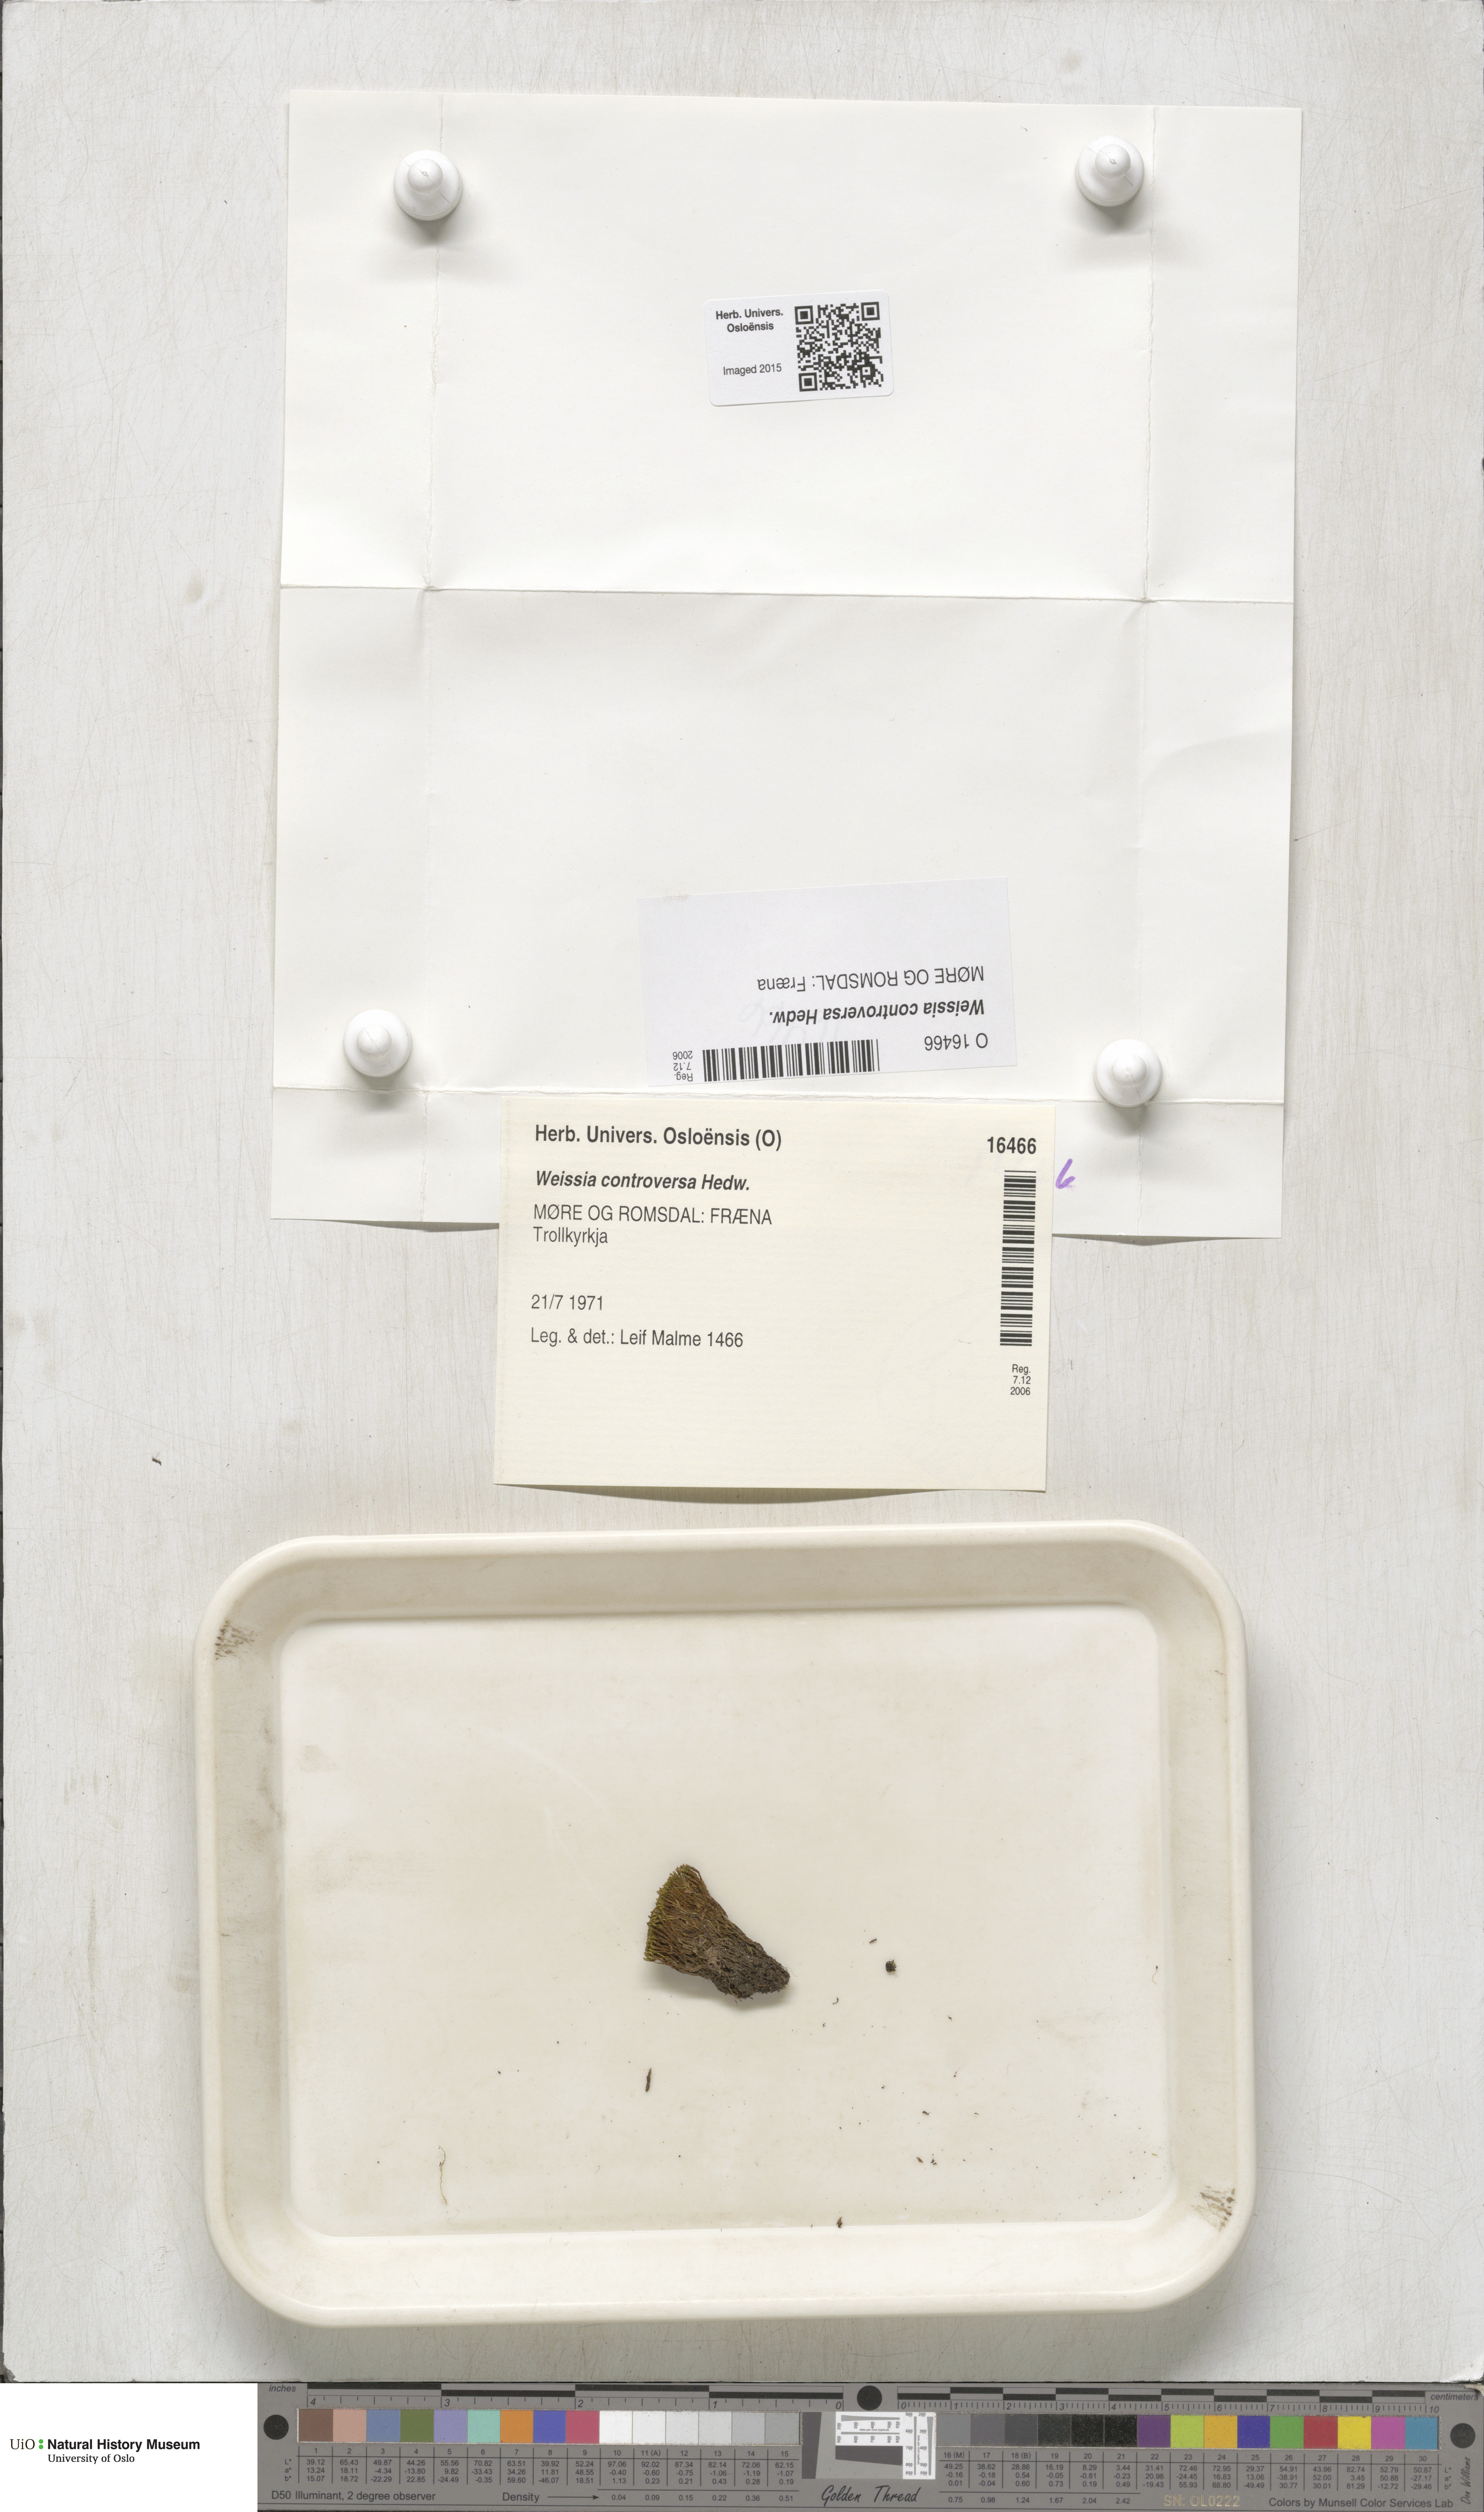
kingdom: Plantae
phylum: Bryophyta
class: Bryopsida
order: Pottiales
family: Pottiaceae
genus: Weissia
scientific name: Weissia controversa
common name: Green-tufted stubble moss
